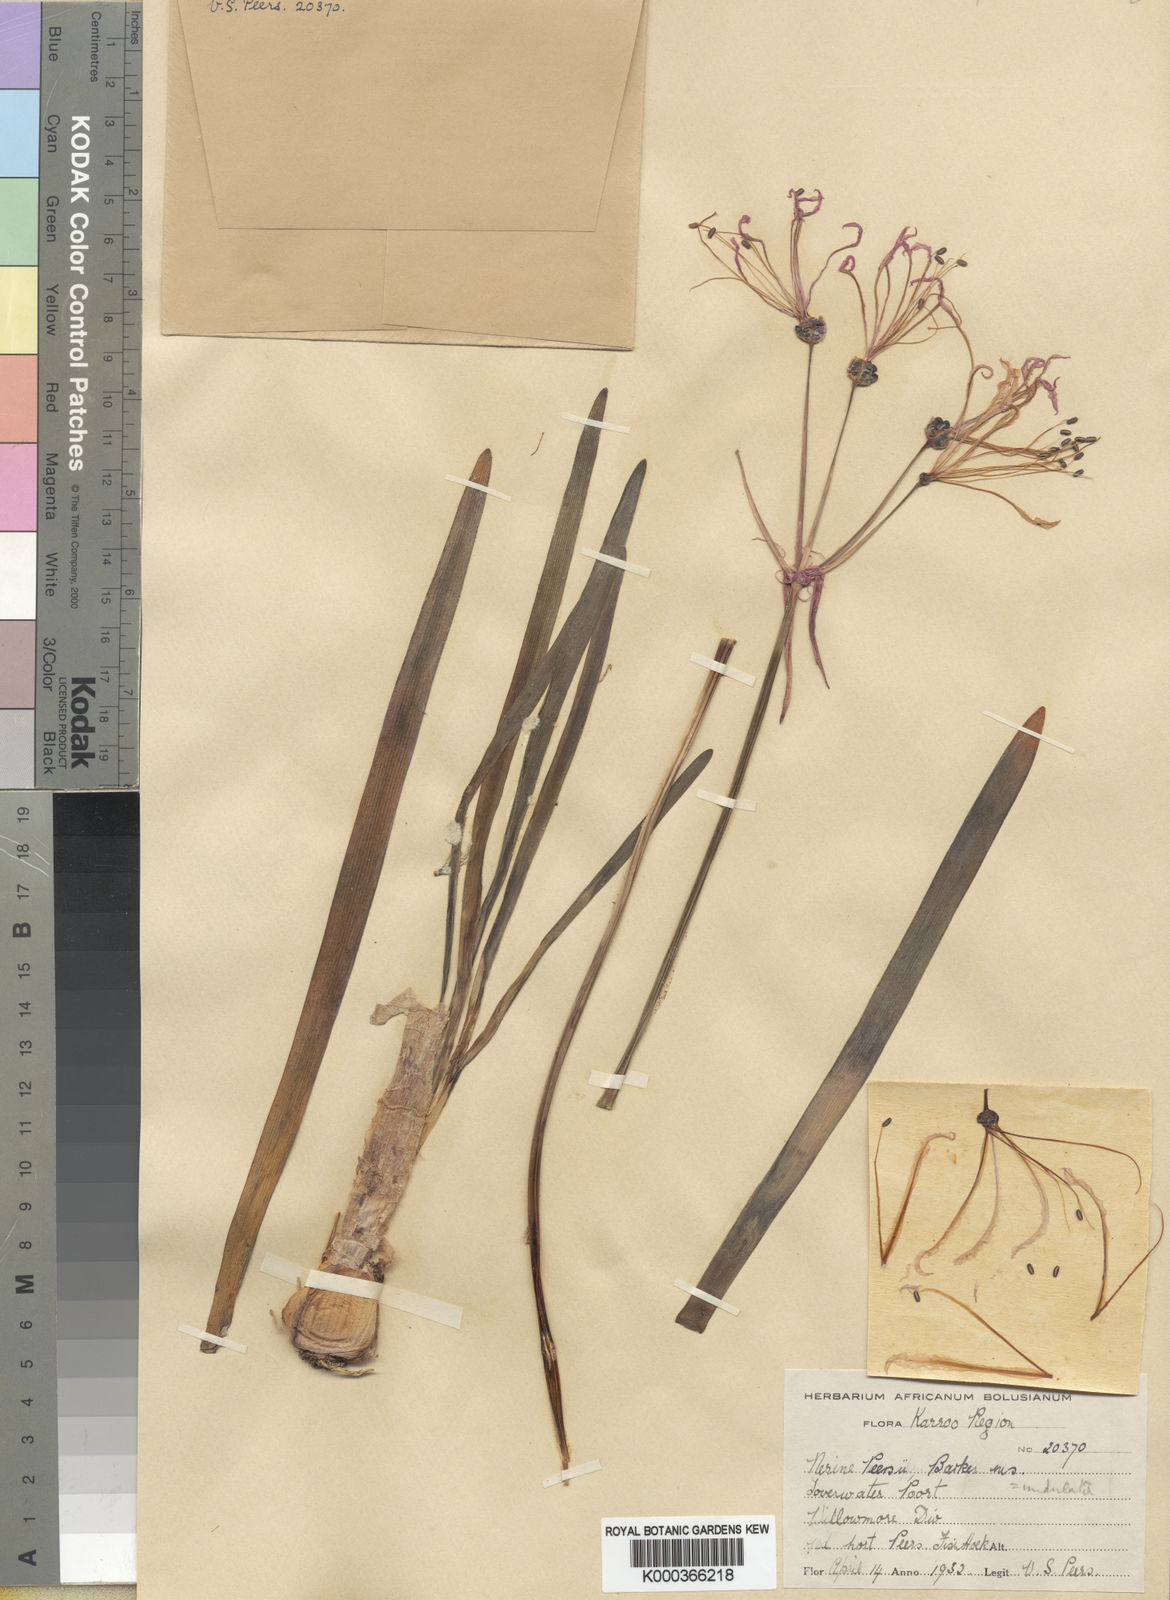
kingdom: Plantae
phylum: Tracheophyta
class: Liliopsida
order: Asparagales
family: Amaryllidaceae
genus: Nerine
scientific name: Nerine humilis
